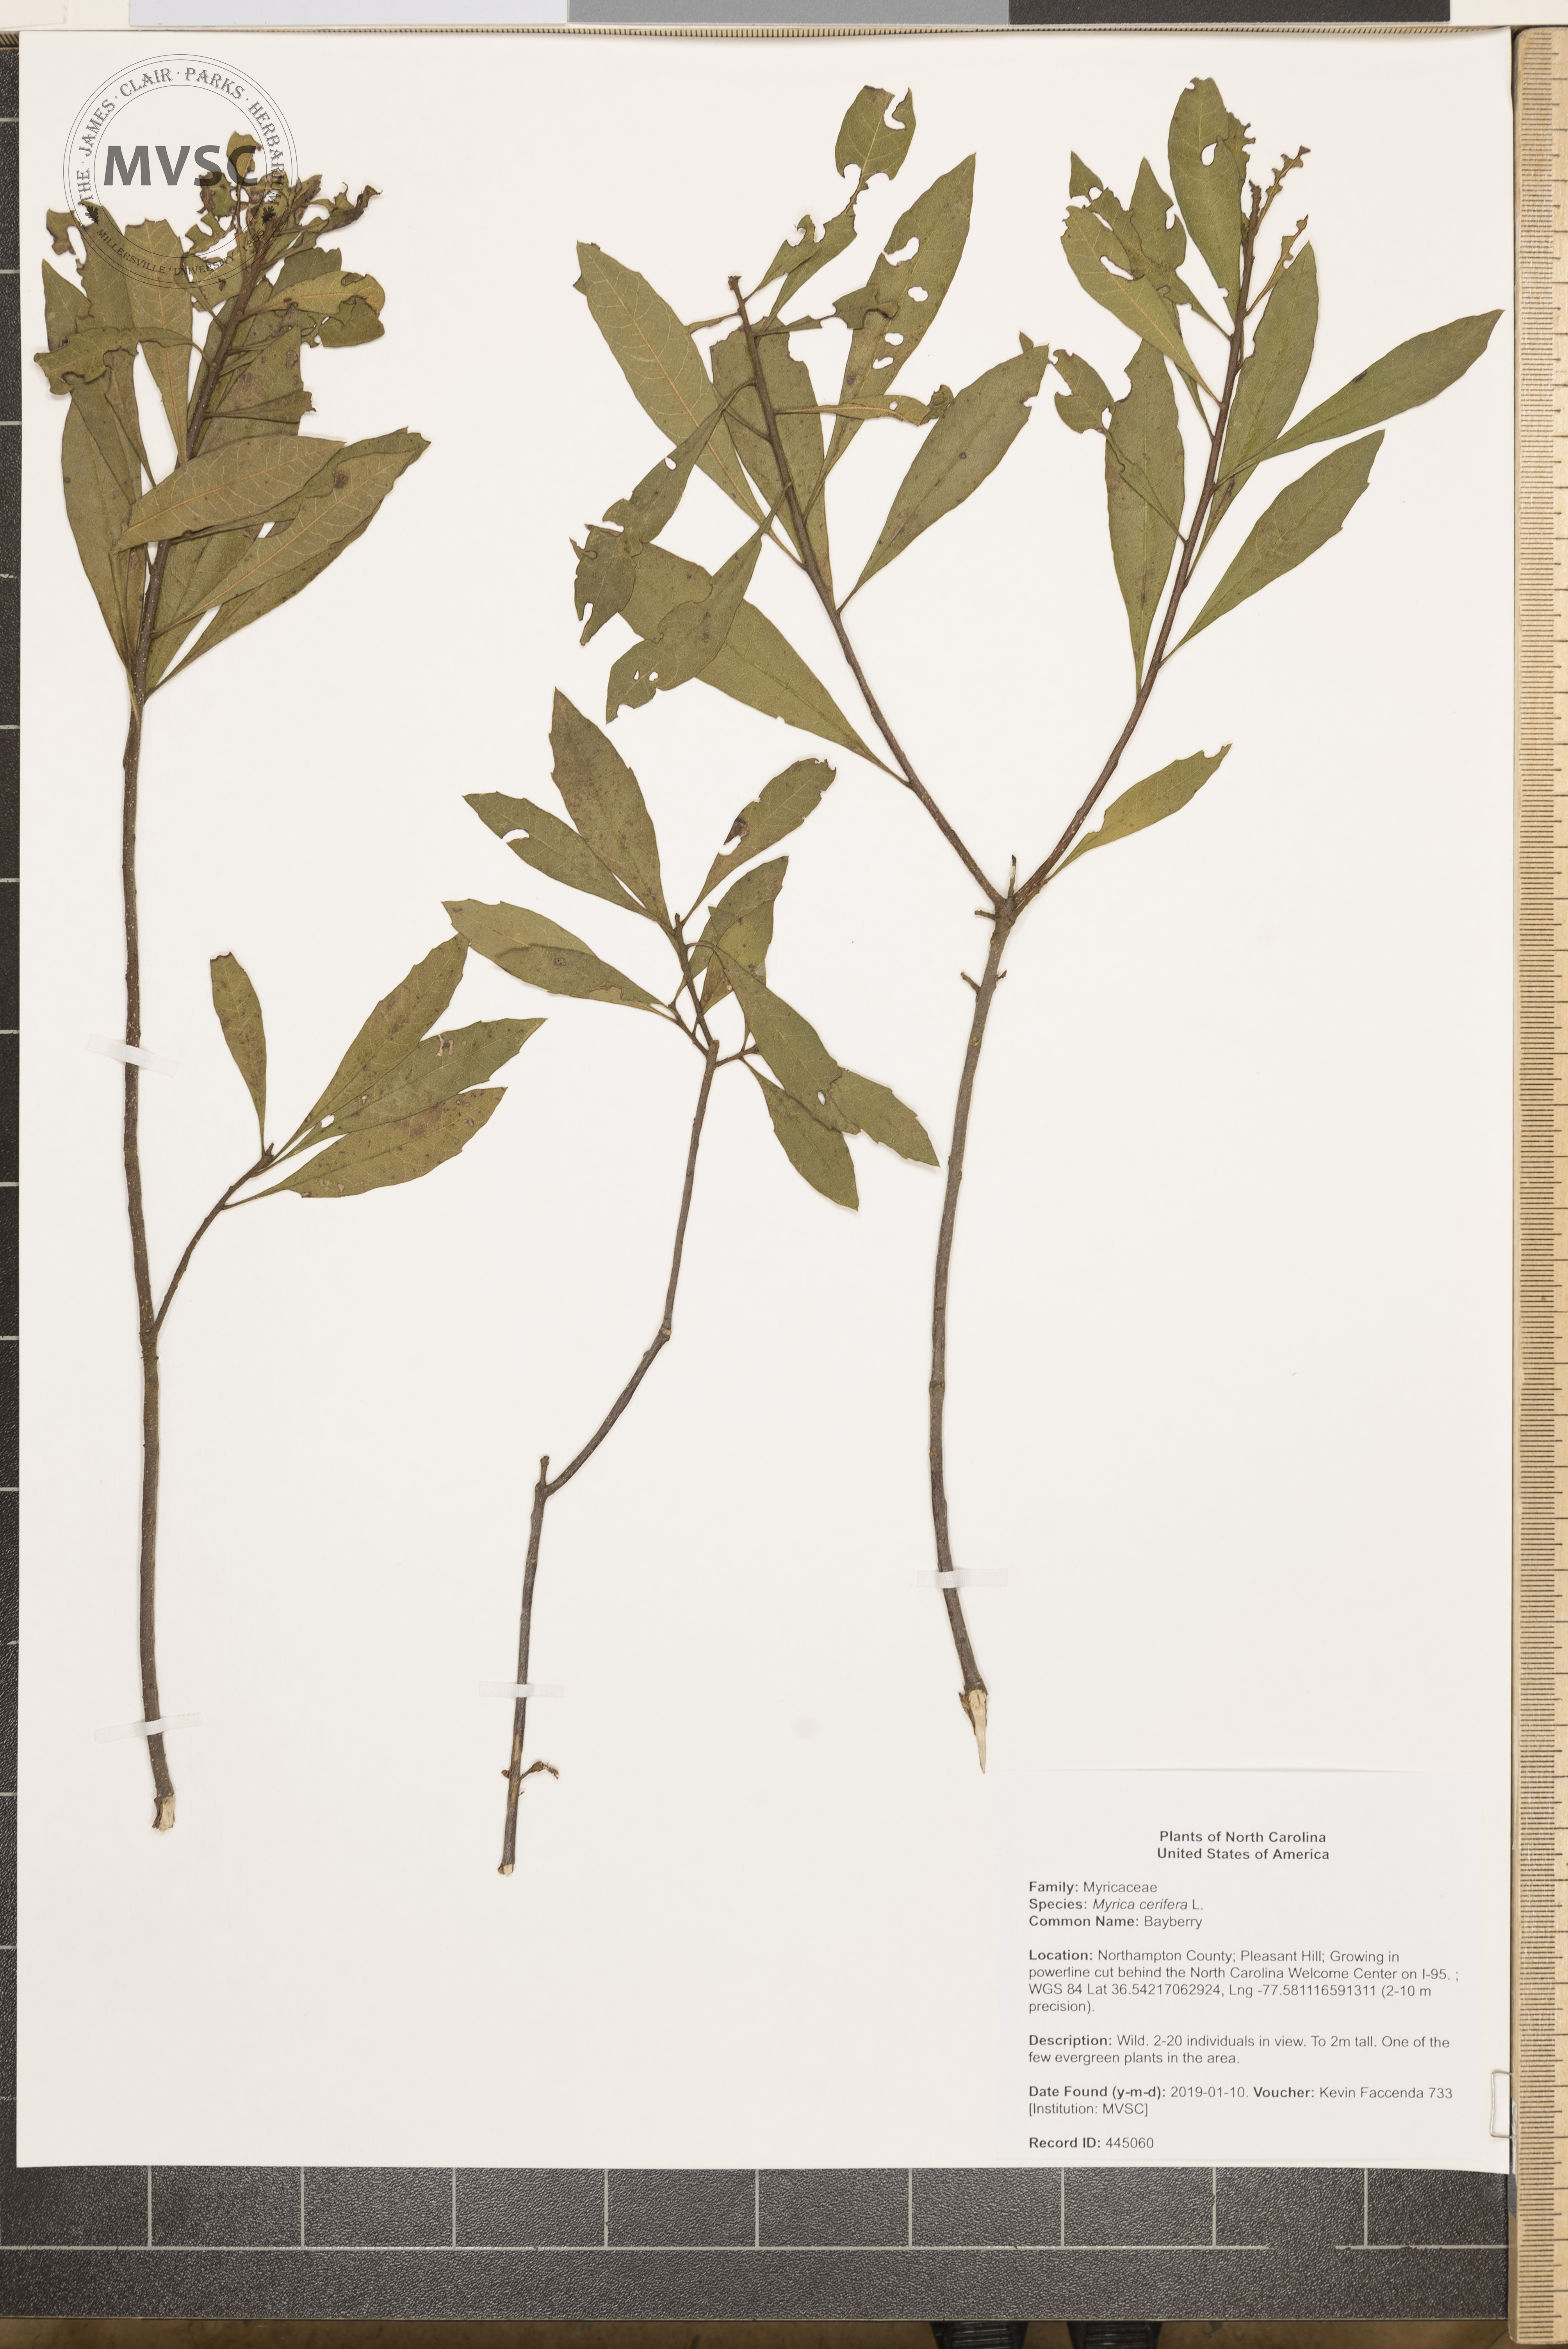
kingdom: Plantae
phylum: Tracheophyta
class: Magnoliopsida
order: Fagales
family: Myricaceae
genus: Morella
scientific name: Morella cerifera
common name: Bayberry
